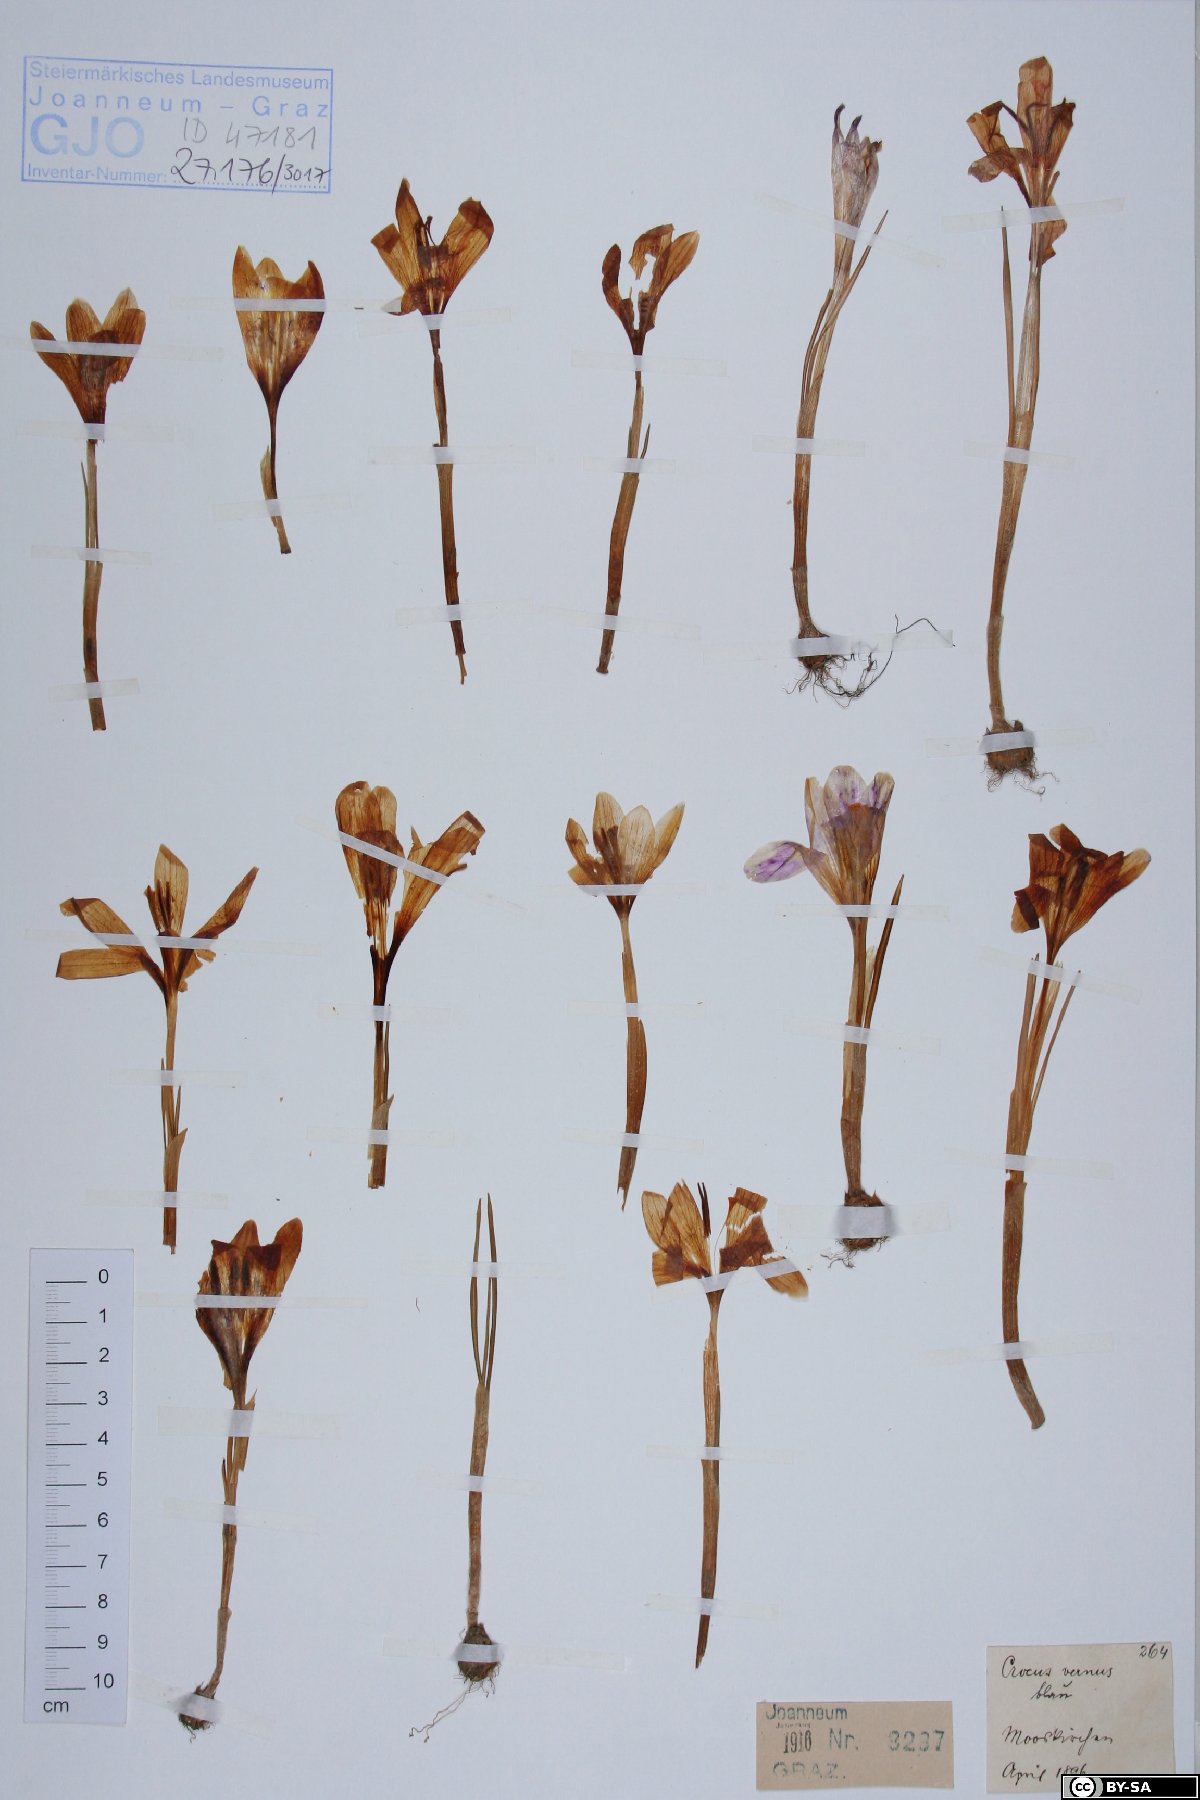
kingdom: Plantae
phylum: Tracheophyta
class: Liliopsida
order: Asparagales
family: Iridaceae
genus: Crocus
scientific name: Crocus vernus
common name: Spring crocus
